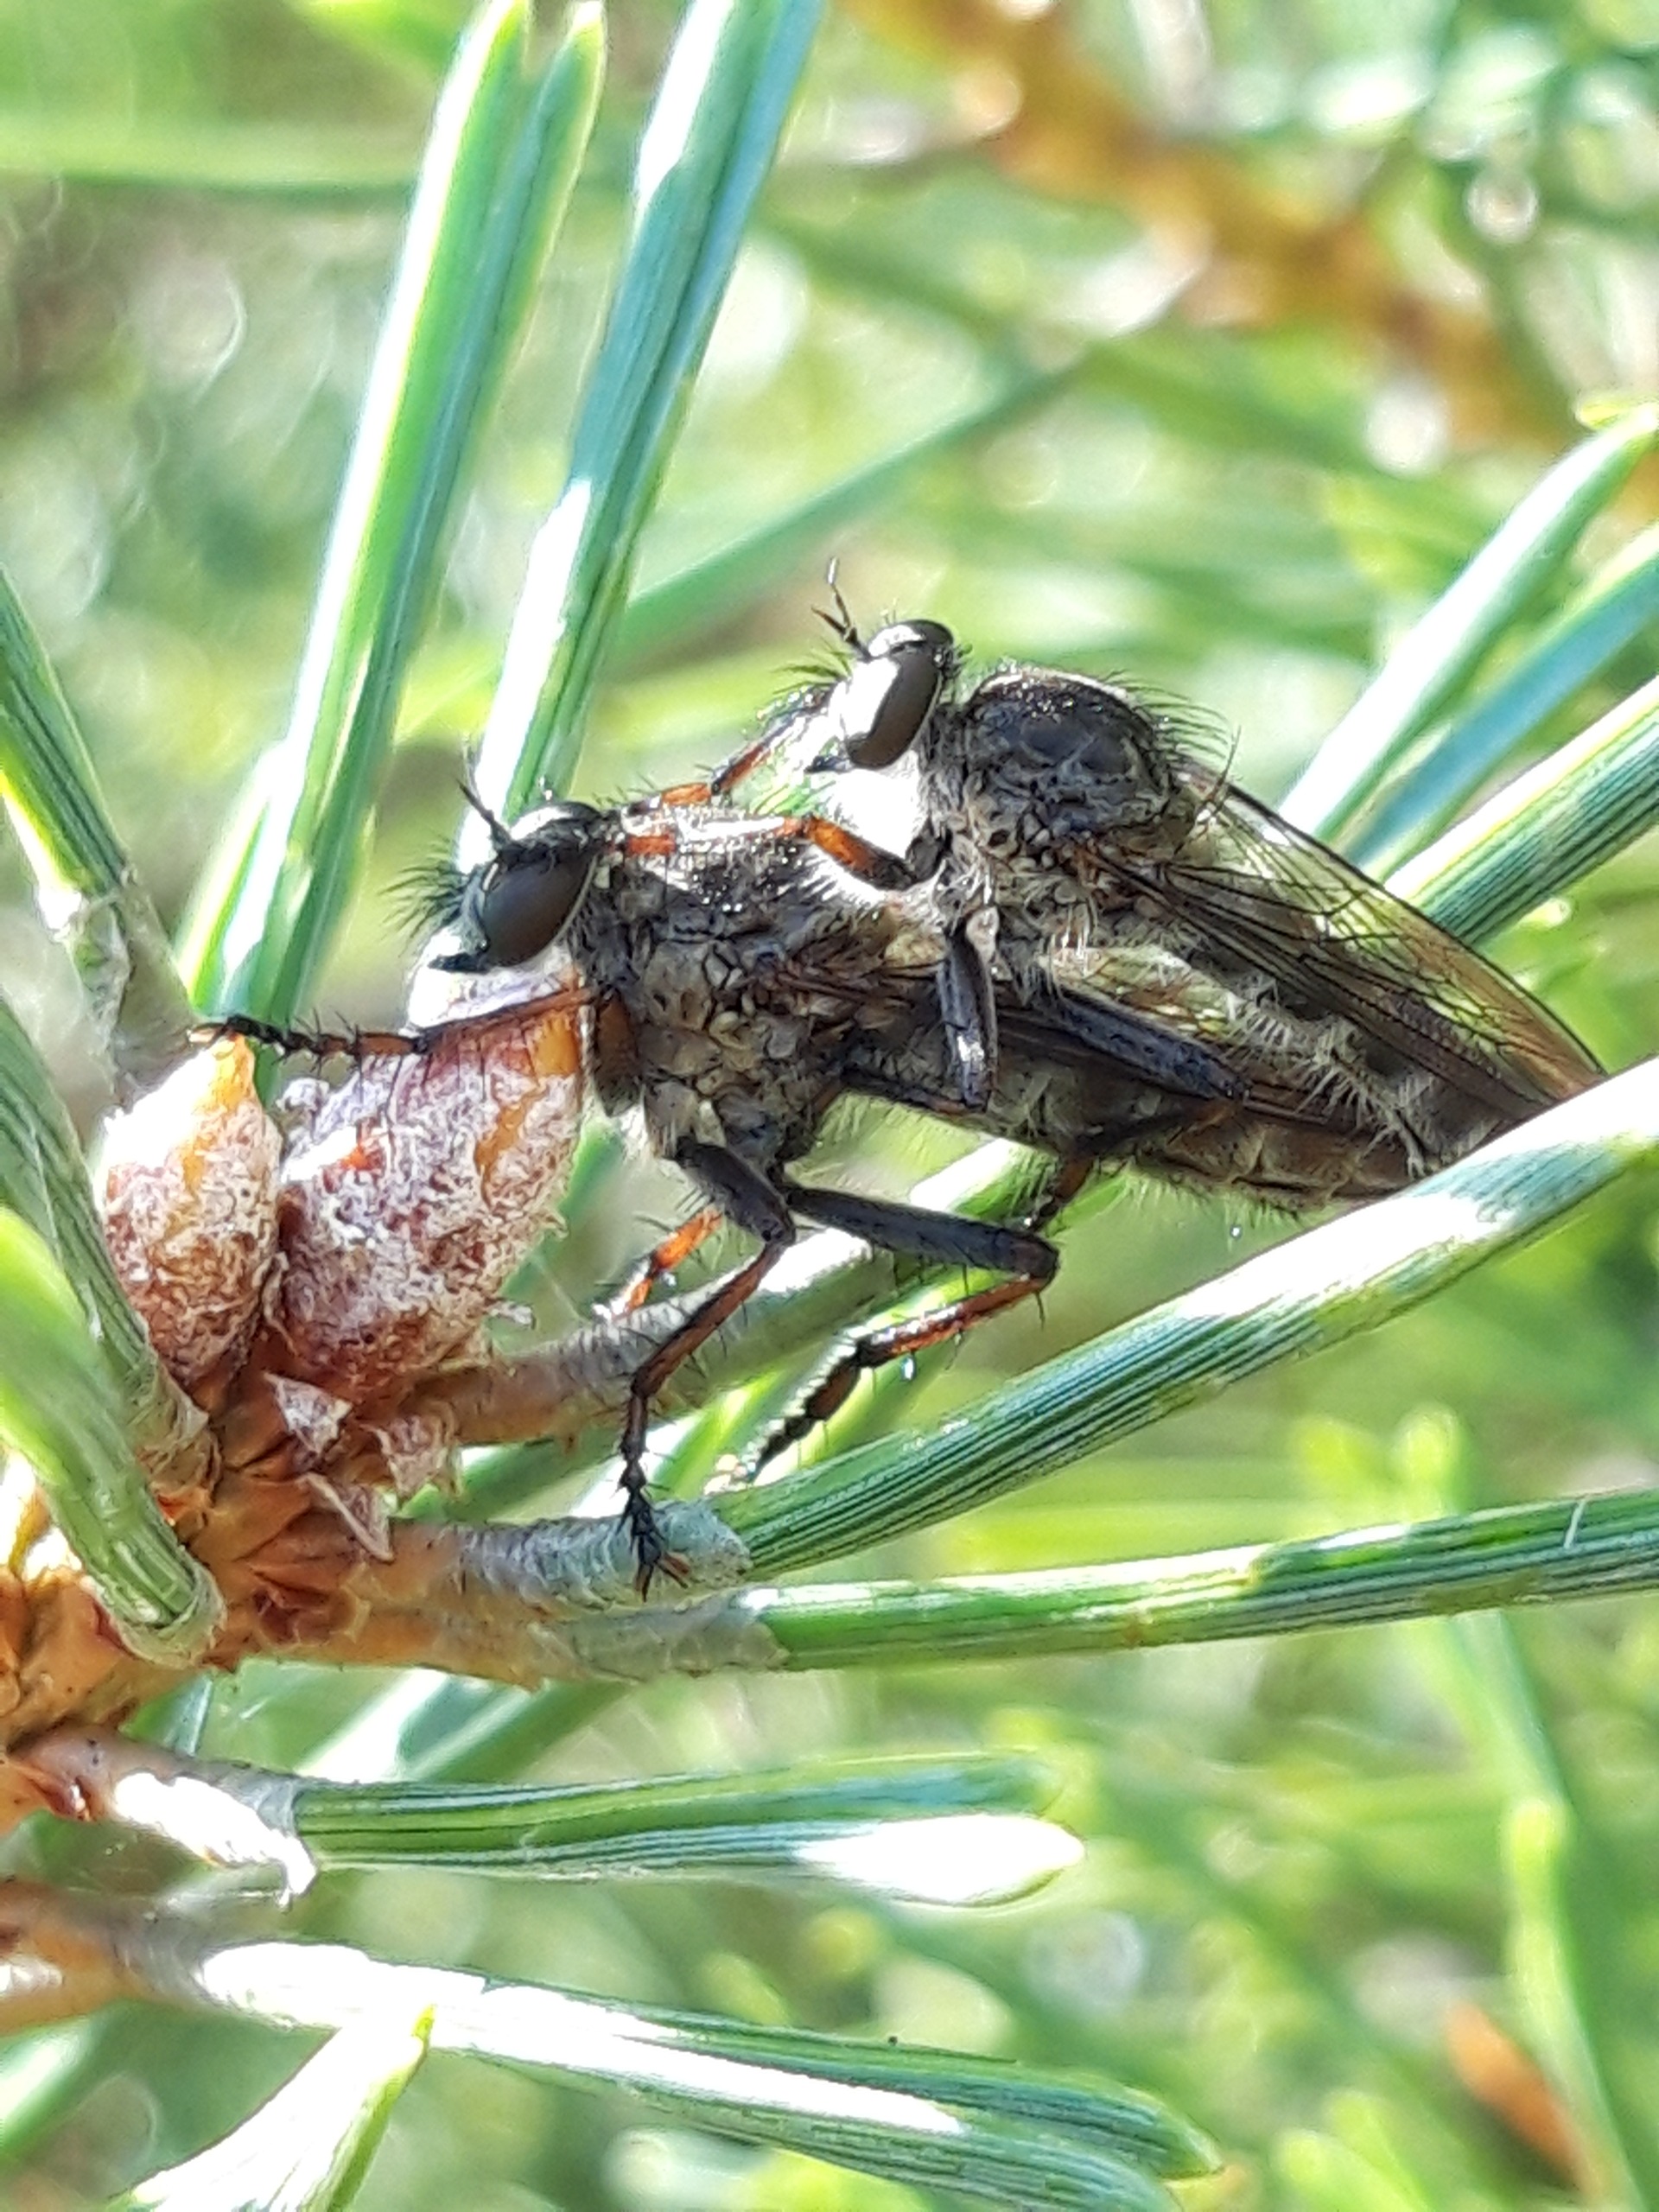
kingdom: Animalia
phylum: Arthropoda
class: Insecta
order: Diptera
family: Asilidae
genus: Machimus
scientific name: Machimus atricapillus
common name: Sort hårrovflue
